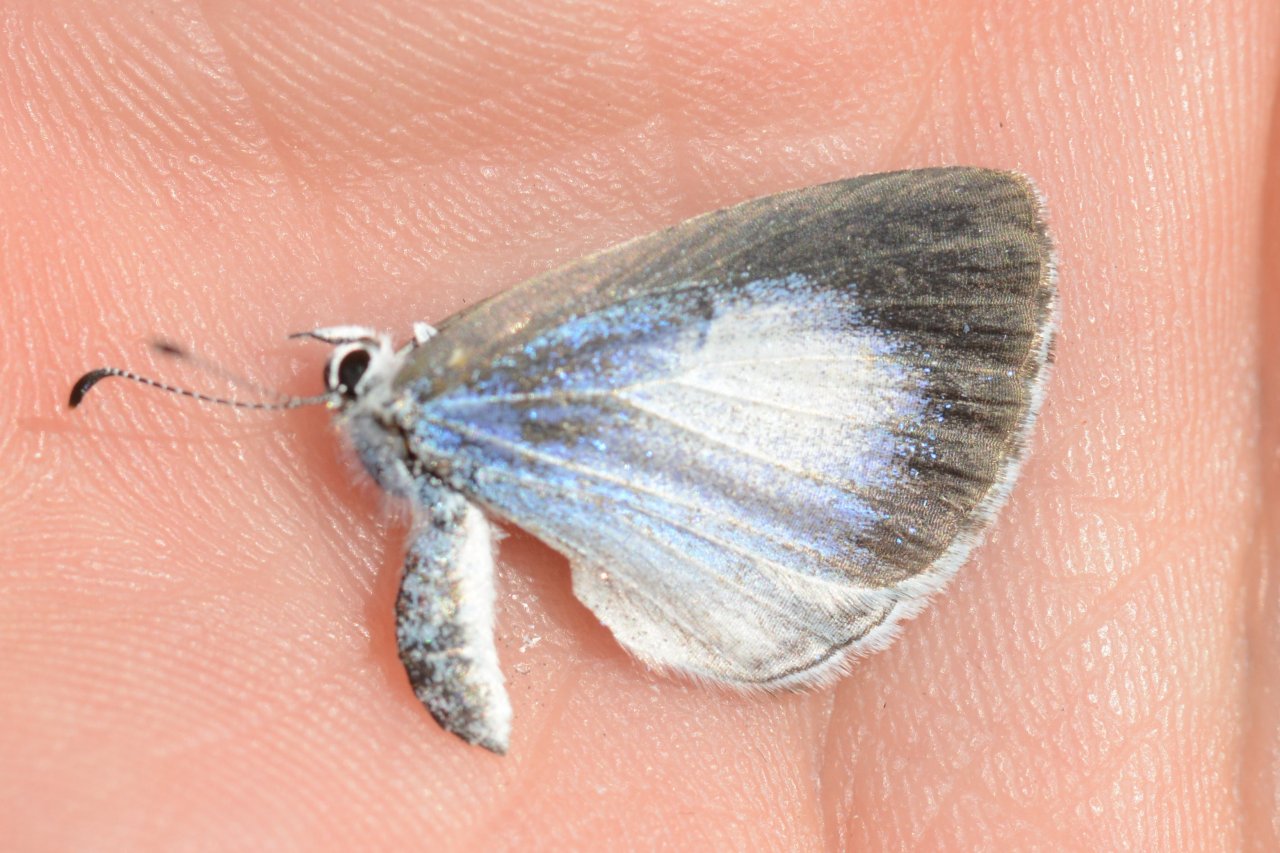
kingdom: Animalia
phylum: Arthropoda
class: Insecta
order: Lepidoptera
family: Lycaenidae
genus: Celastrina
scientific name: Celastrina lucia
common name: Northern Spring Azure
